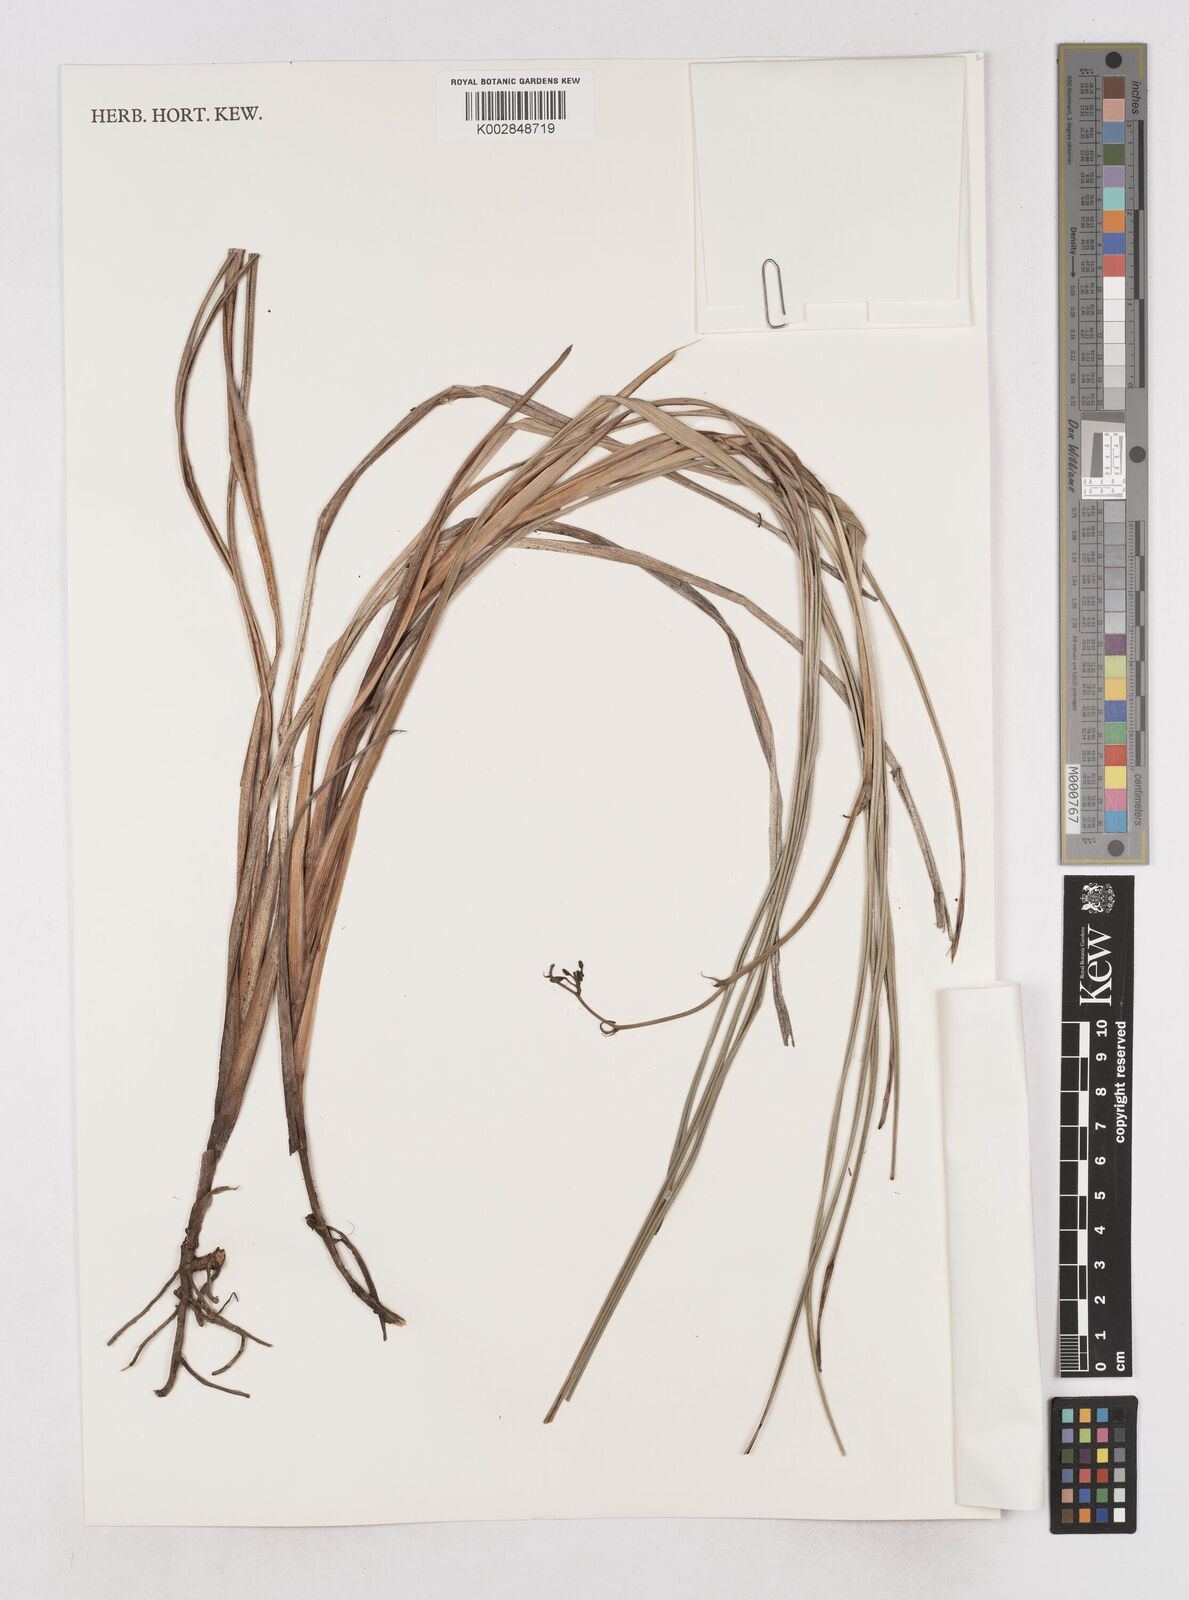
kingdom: Plantae
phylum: Tracheophyta
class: Liliopsida
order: Asparagales
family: Asphodelaceae
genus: Dianella
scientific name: Dianella intermedia
